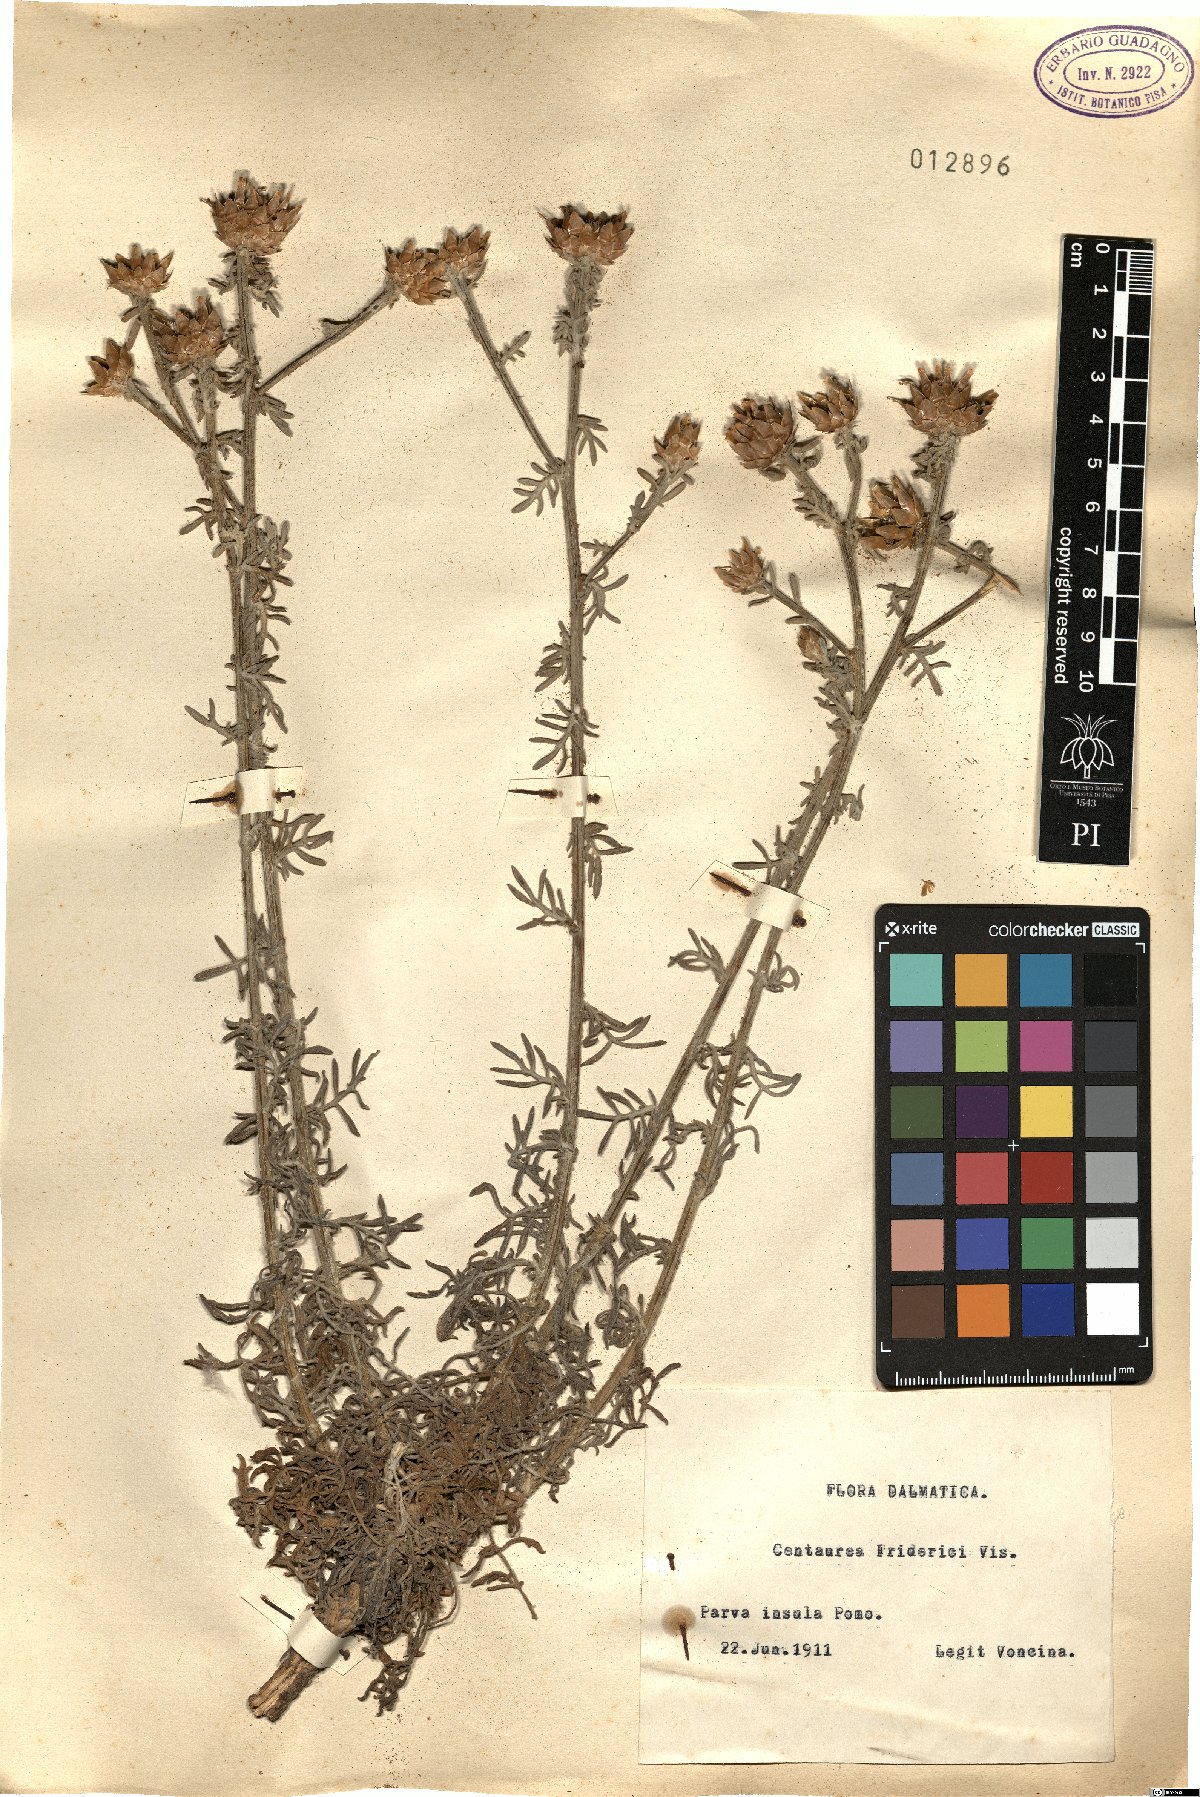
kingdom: Plantae
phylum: Tracheophyta
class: Magnoliopsida
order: Asterales
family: Asteraceae
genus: Centaurea
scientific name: Centaurea friderici
